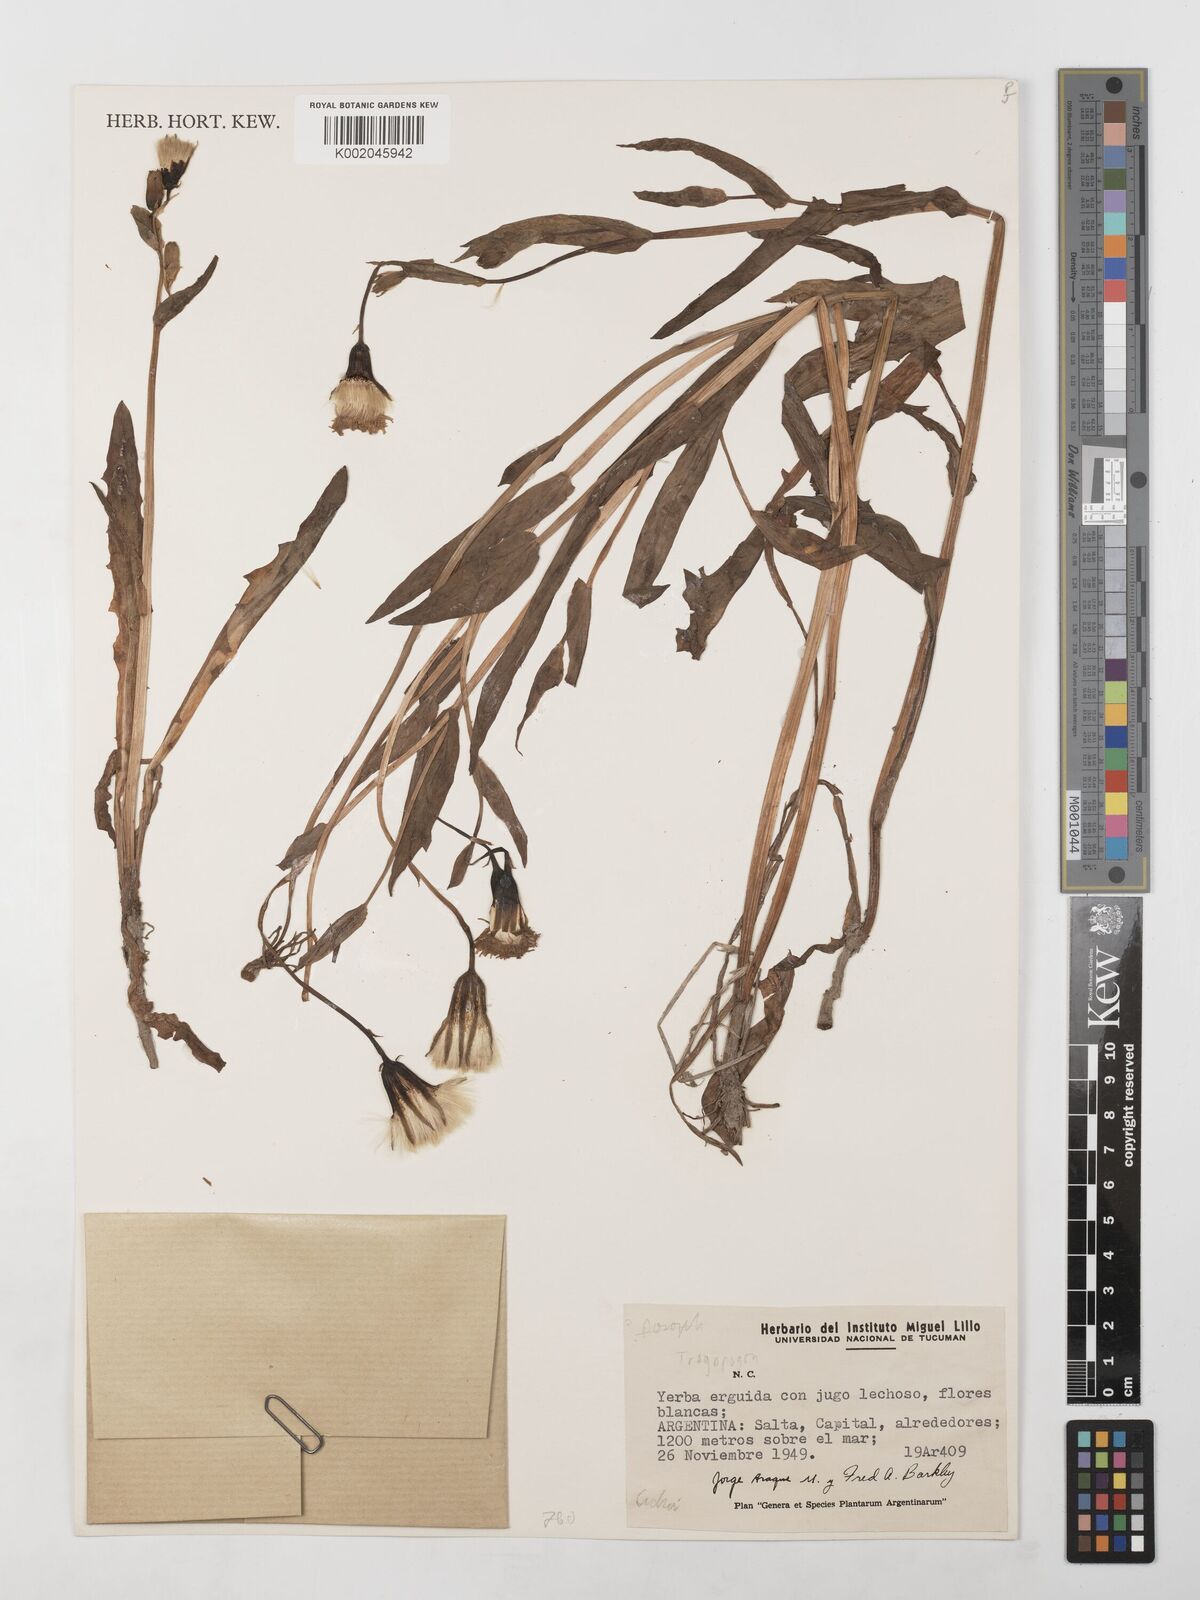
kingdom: Plantae
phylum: Tracheophyta
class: Magnoliopsida
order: Asterales
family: Asteraceae
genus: Tragopogon
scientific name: Tragopogon
